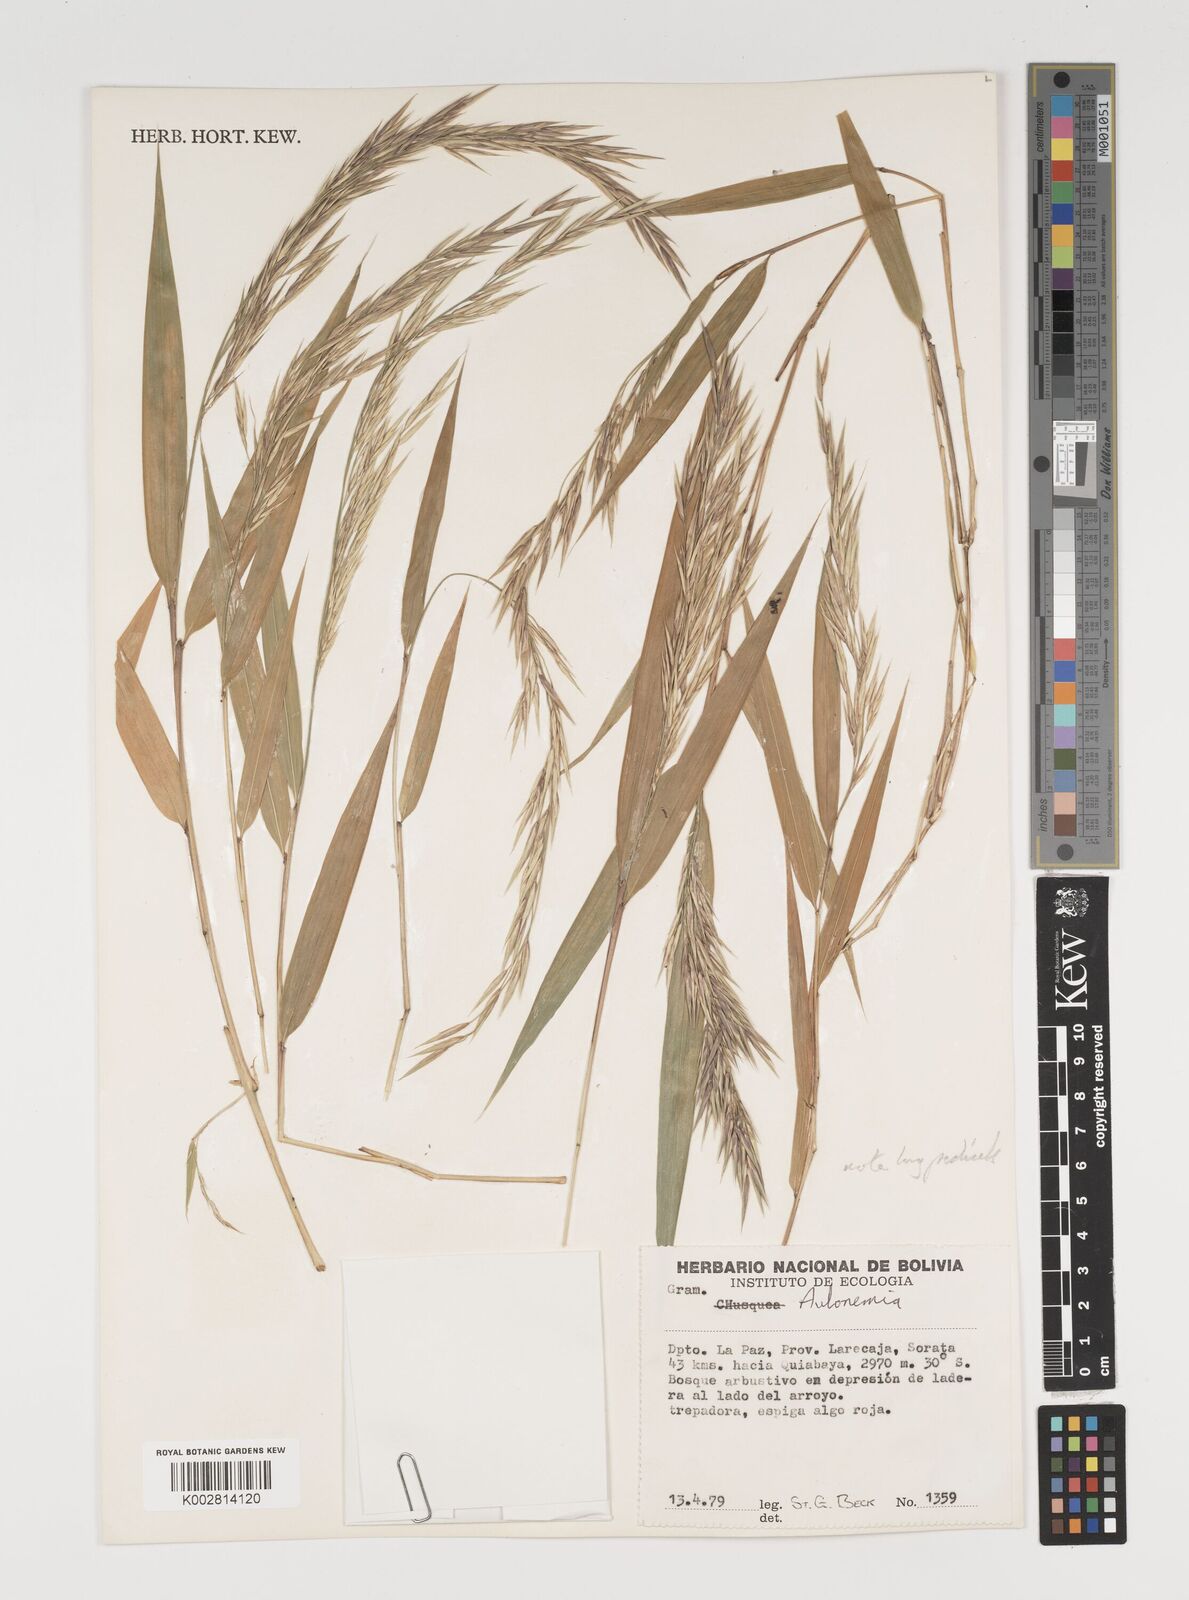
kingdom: Plantae
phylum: Tracheophyta
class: Liliopsida
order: Poales
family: Poaceae
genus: Chusquea
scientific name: Chusquea
